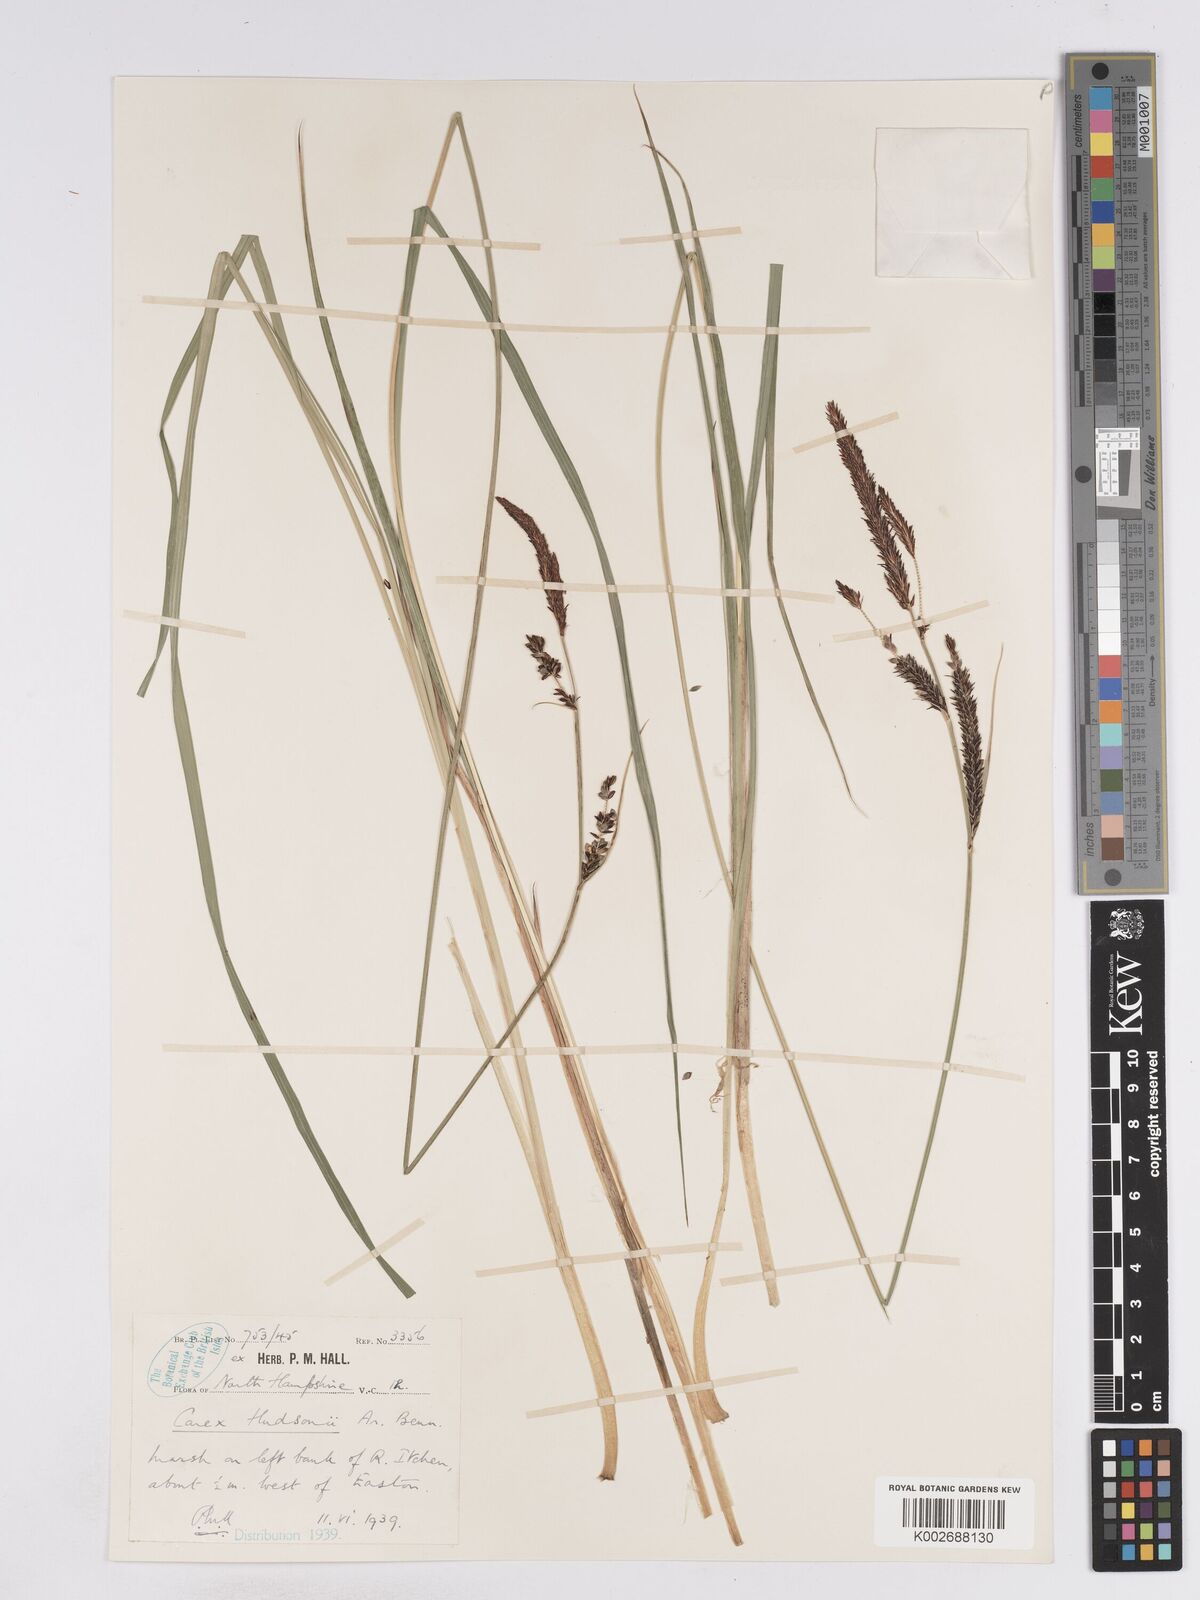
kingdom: Plantae
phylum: Tracheophyta
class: Liliopsida
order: Poales
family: Cyperaceae
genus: Carex
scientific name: Carex elata
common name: Tufted sedge
